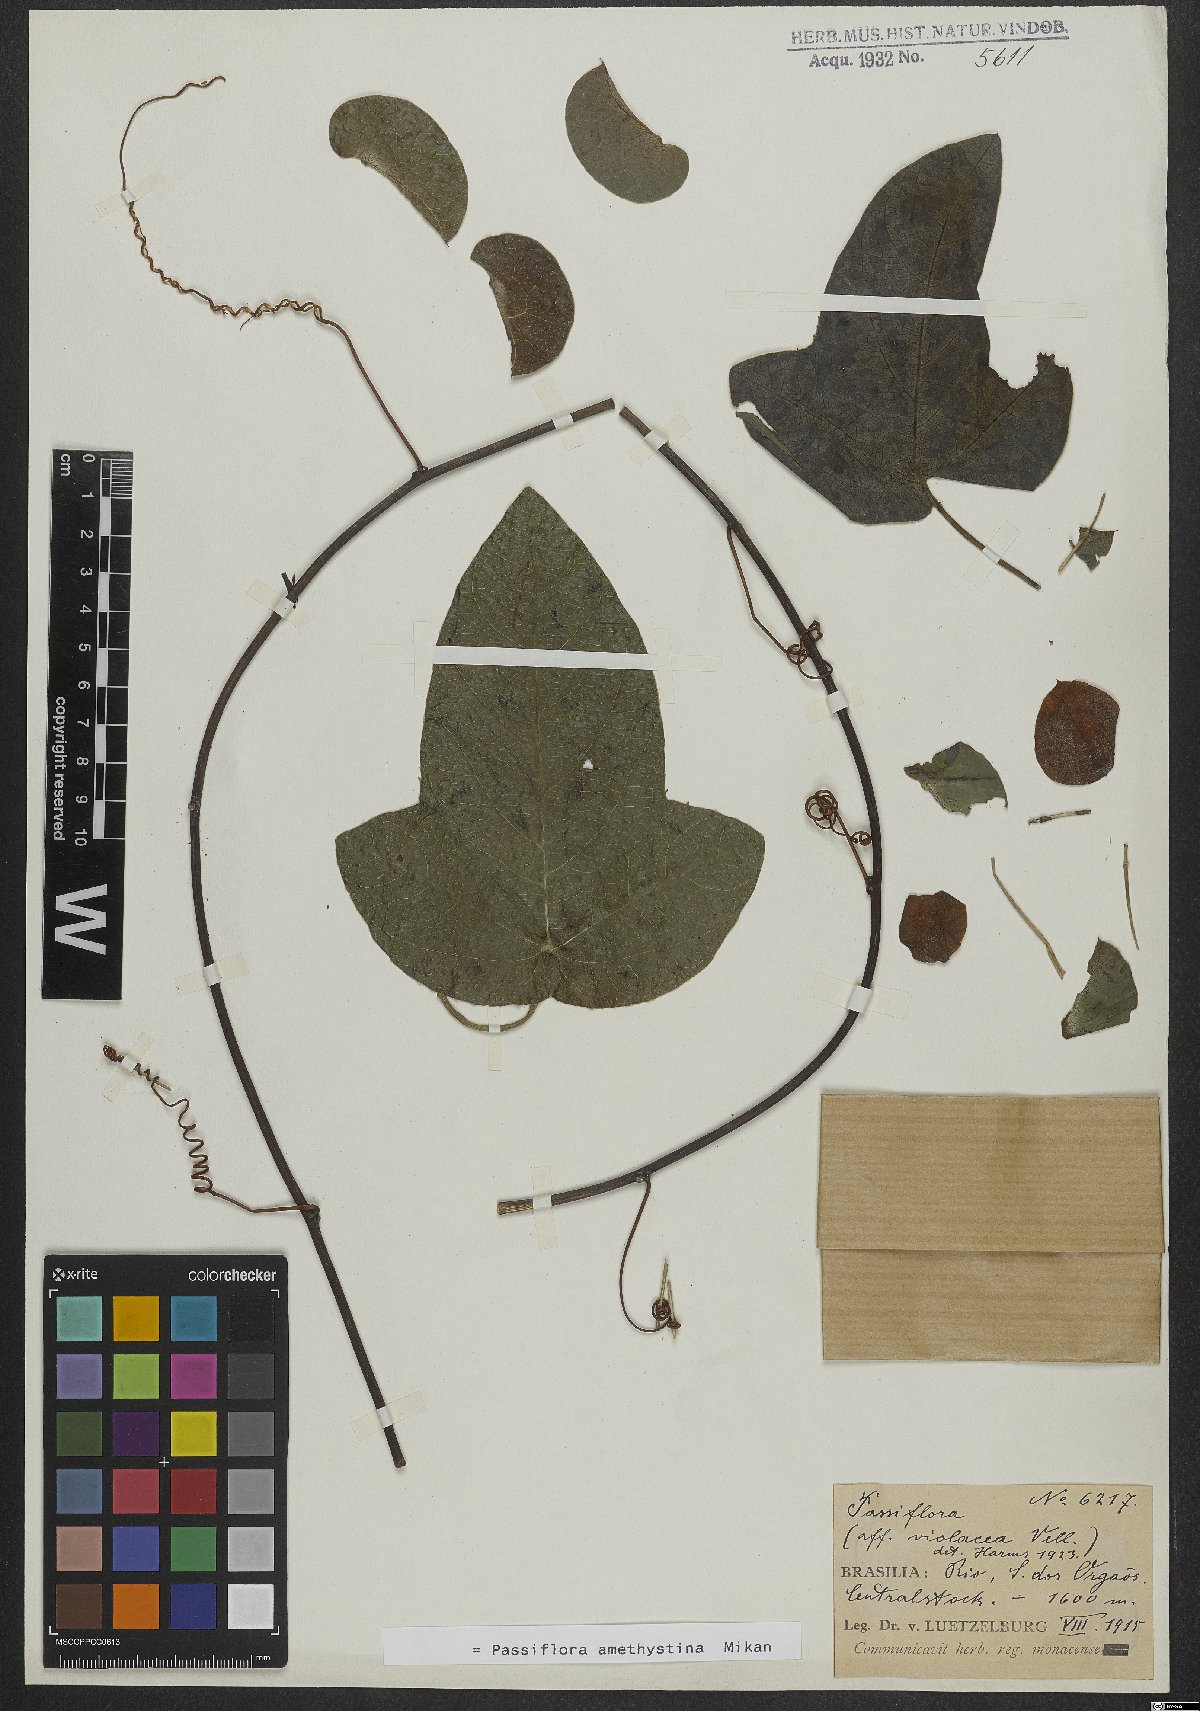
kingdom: Plantae
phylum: Tracheophyta
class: Magnoliopsida
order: Malpighiales
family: Passifloraceae
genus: Passiflora
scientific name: Passiflora amethystina
